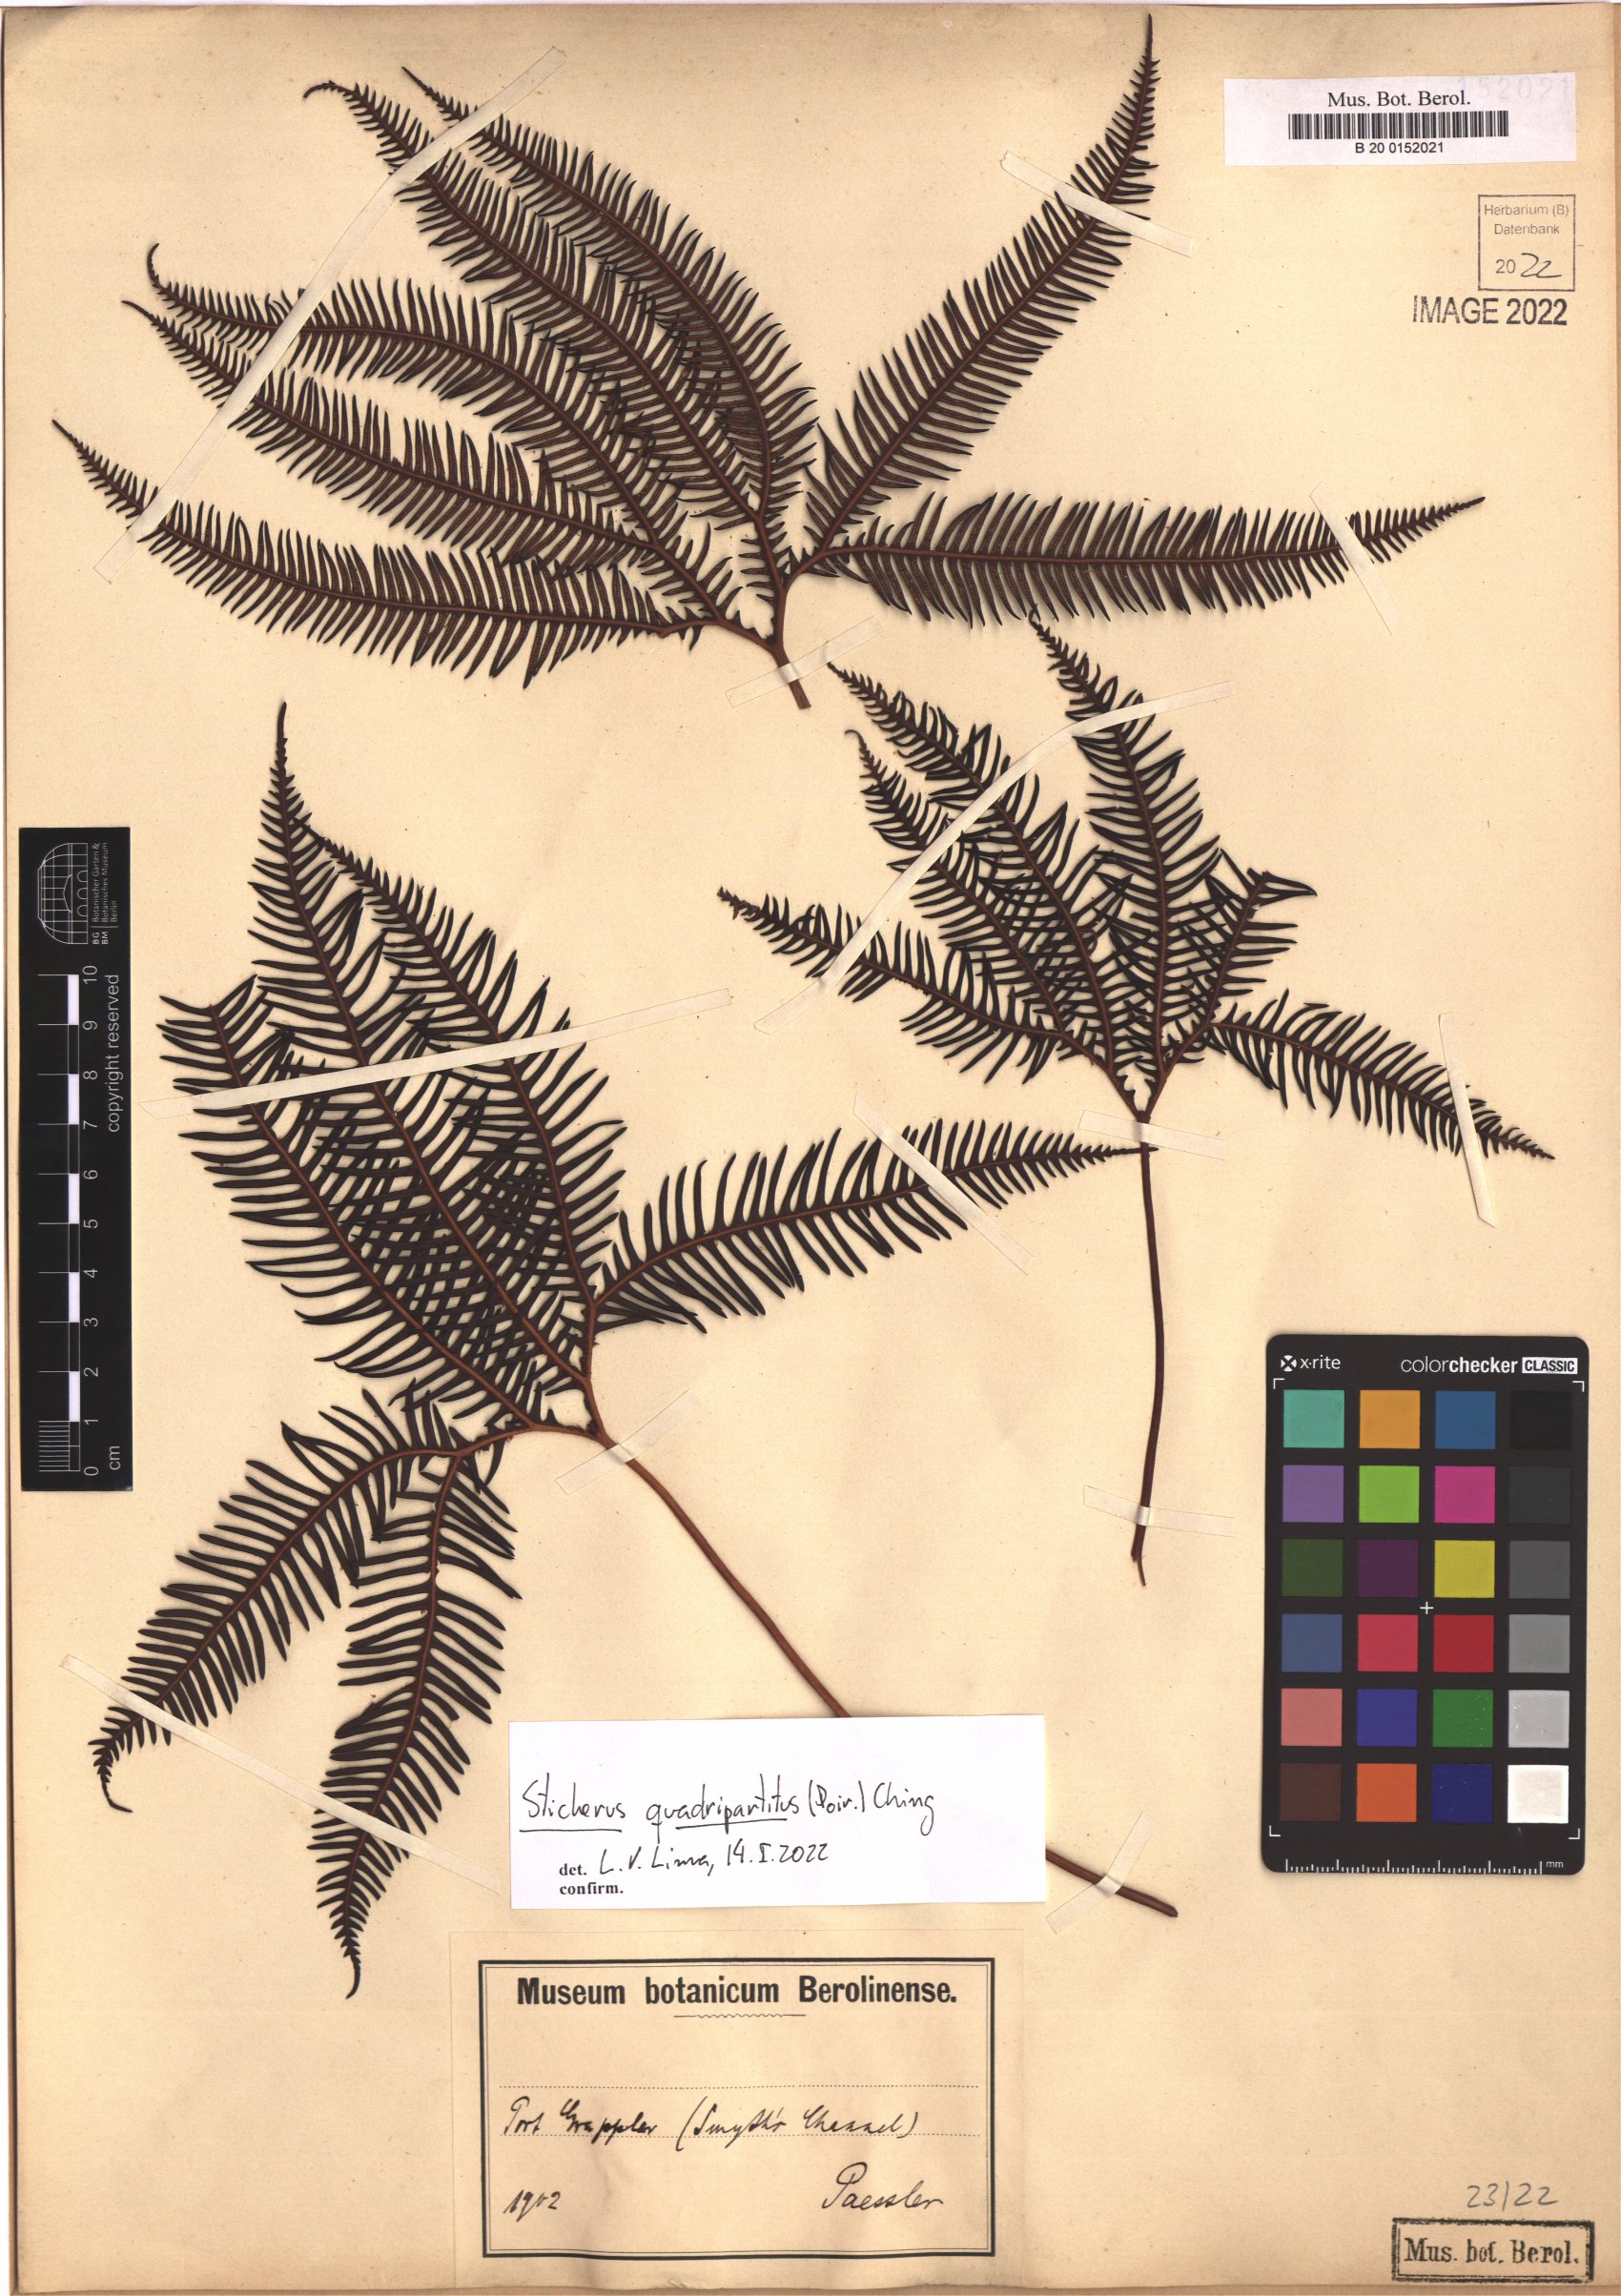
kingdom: Plantae
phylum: Tracheophyta
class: Polypodiopsida
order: Gleicheniales
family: Gleicheniaceae
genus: Sticherus
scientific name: Sticherus quadripartitus
